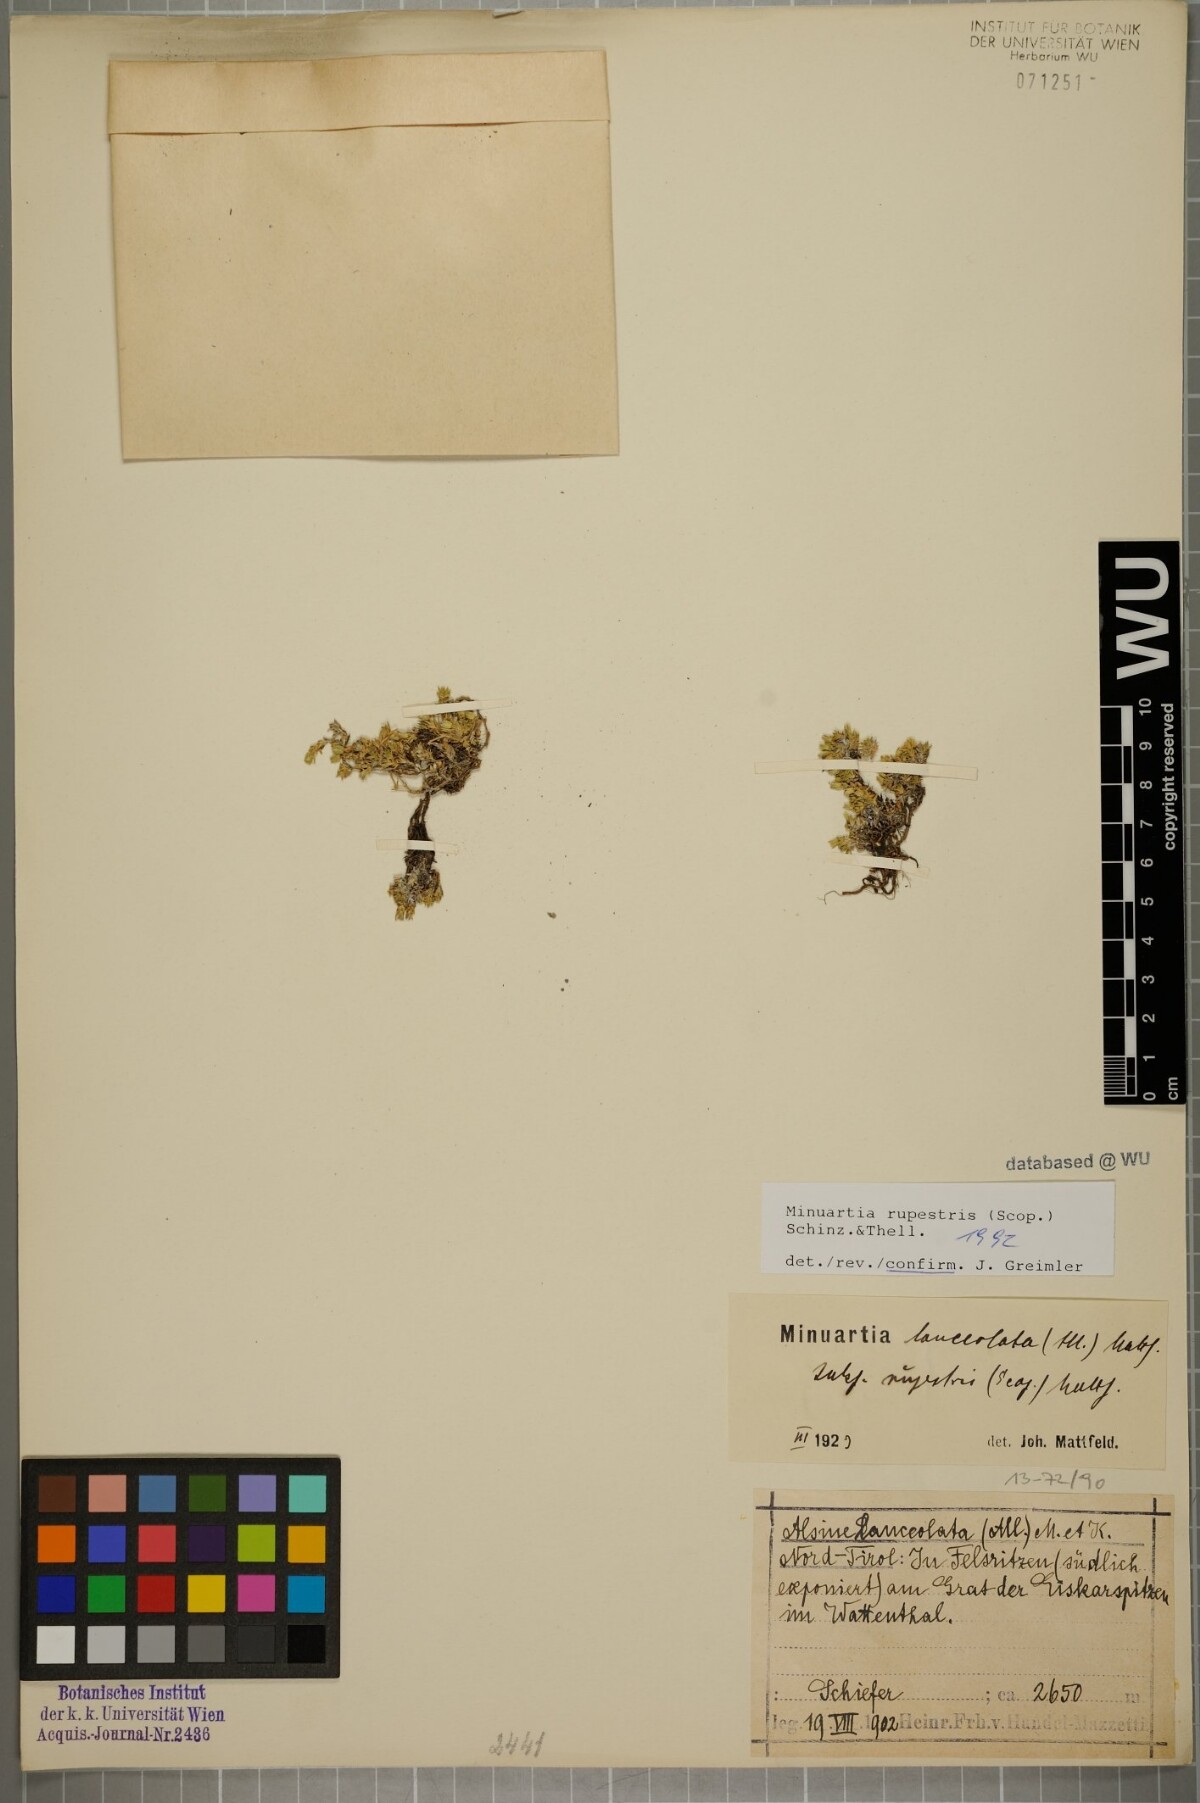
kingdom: Plantae
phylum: Tracheophyta
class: Magnoliopsida
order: Caryophyllales
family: Caryophyllaceae
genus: Facchinia
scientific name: Facchinia rupestris
